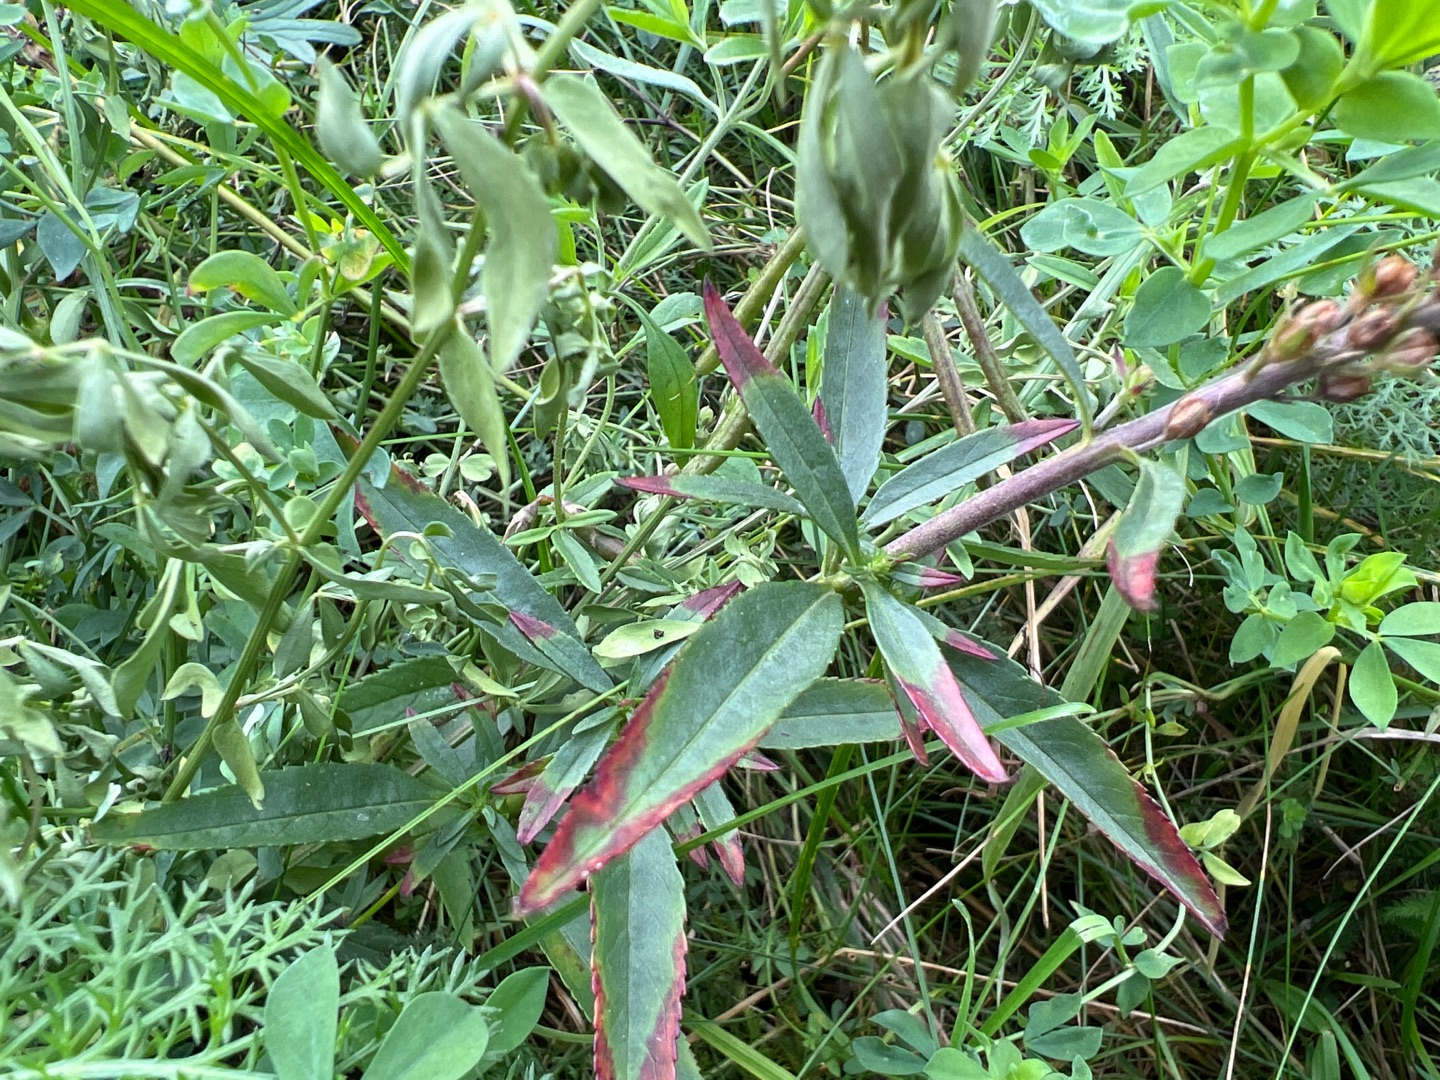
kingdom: Plantae
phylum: Tracheophyta
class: Magnoliopsida
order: Lamiales
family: Plantaginaceae
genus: Veronica
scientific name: Veronica longifolia
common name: Langbladet ærenpris
